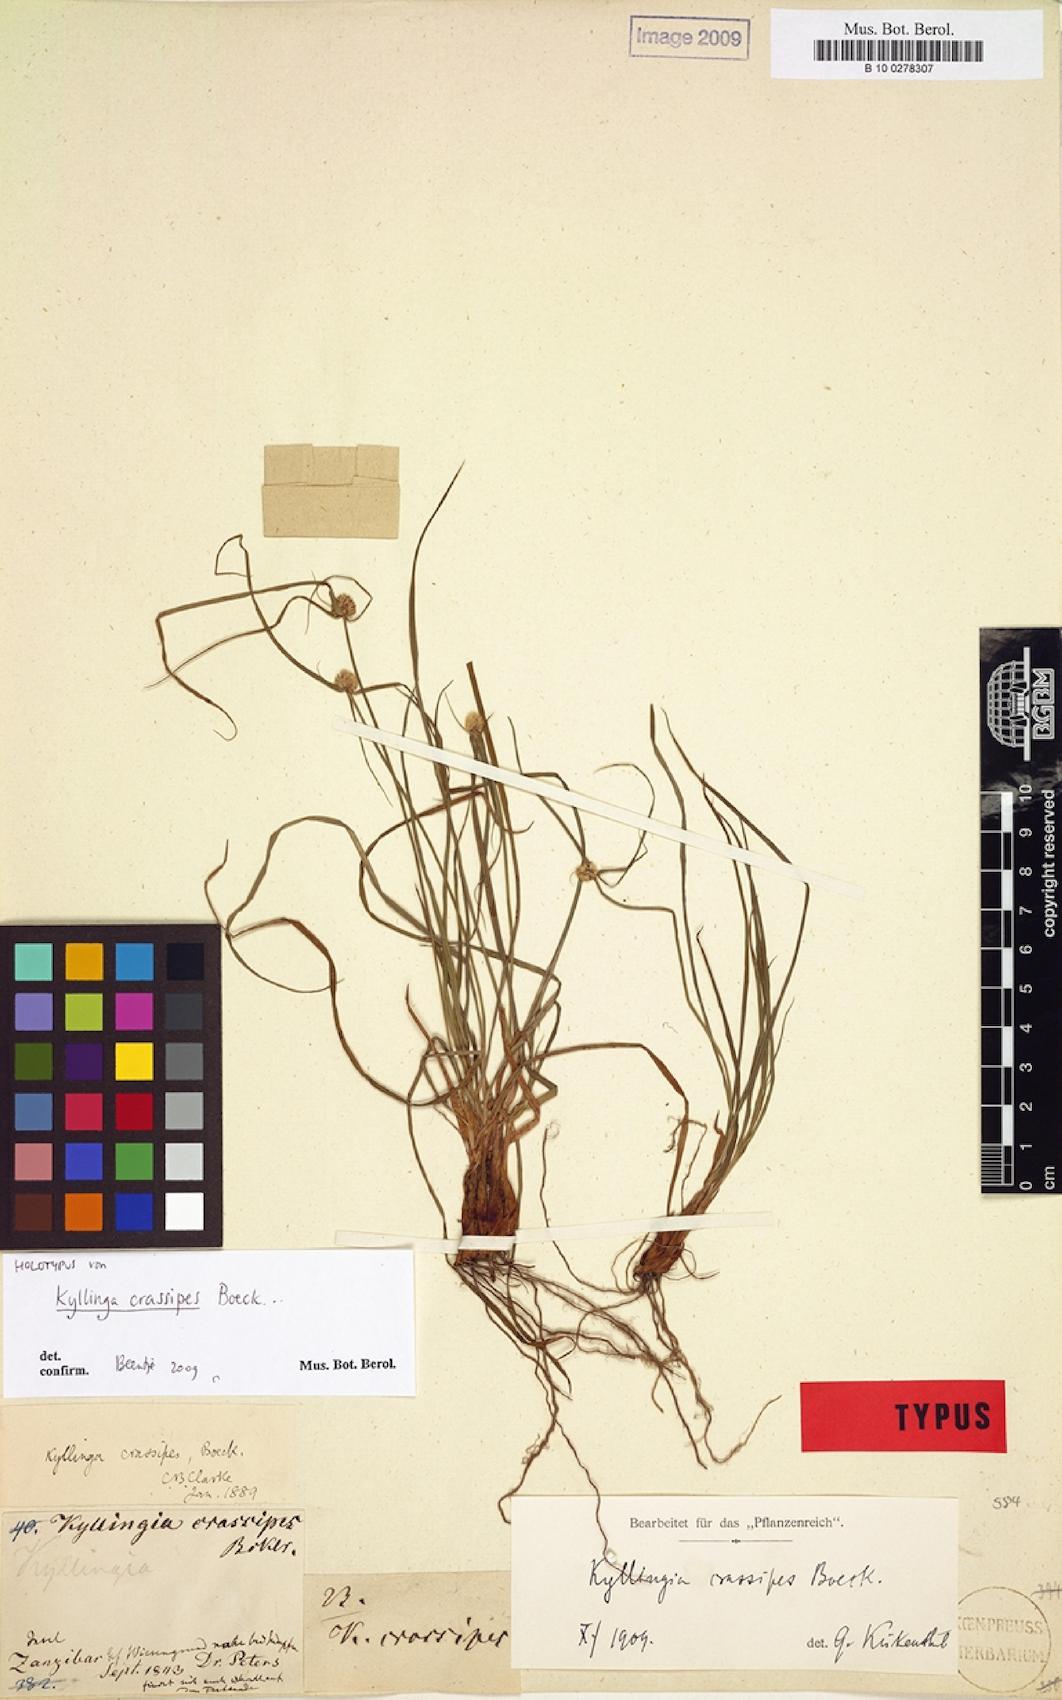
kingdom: Plantae
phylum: Tracheophyta
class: Liliopsida
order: Poales
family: Cyperaceae
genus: Cyperus
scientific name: Cyperus bulbipes
